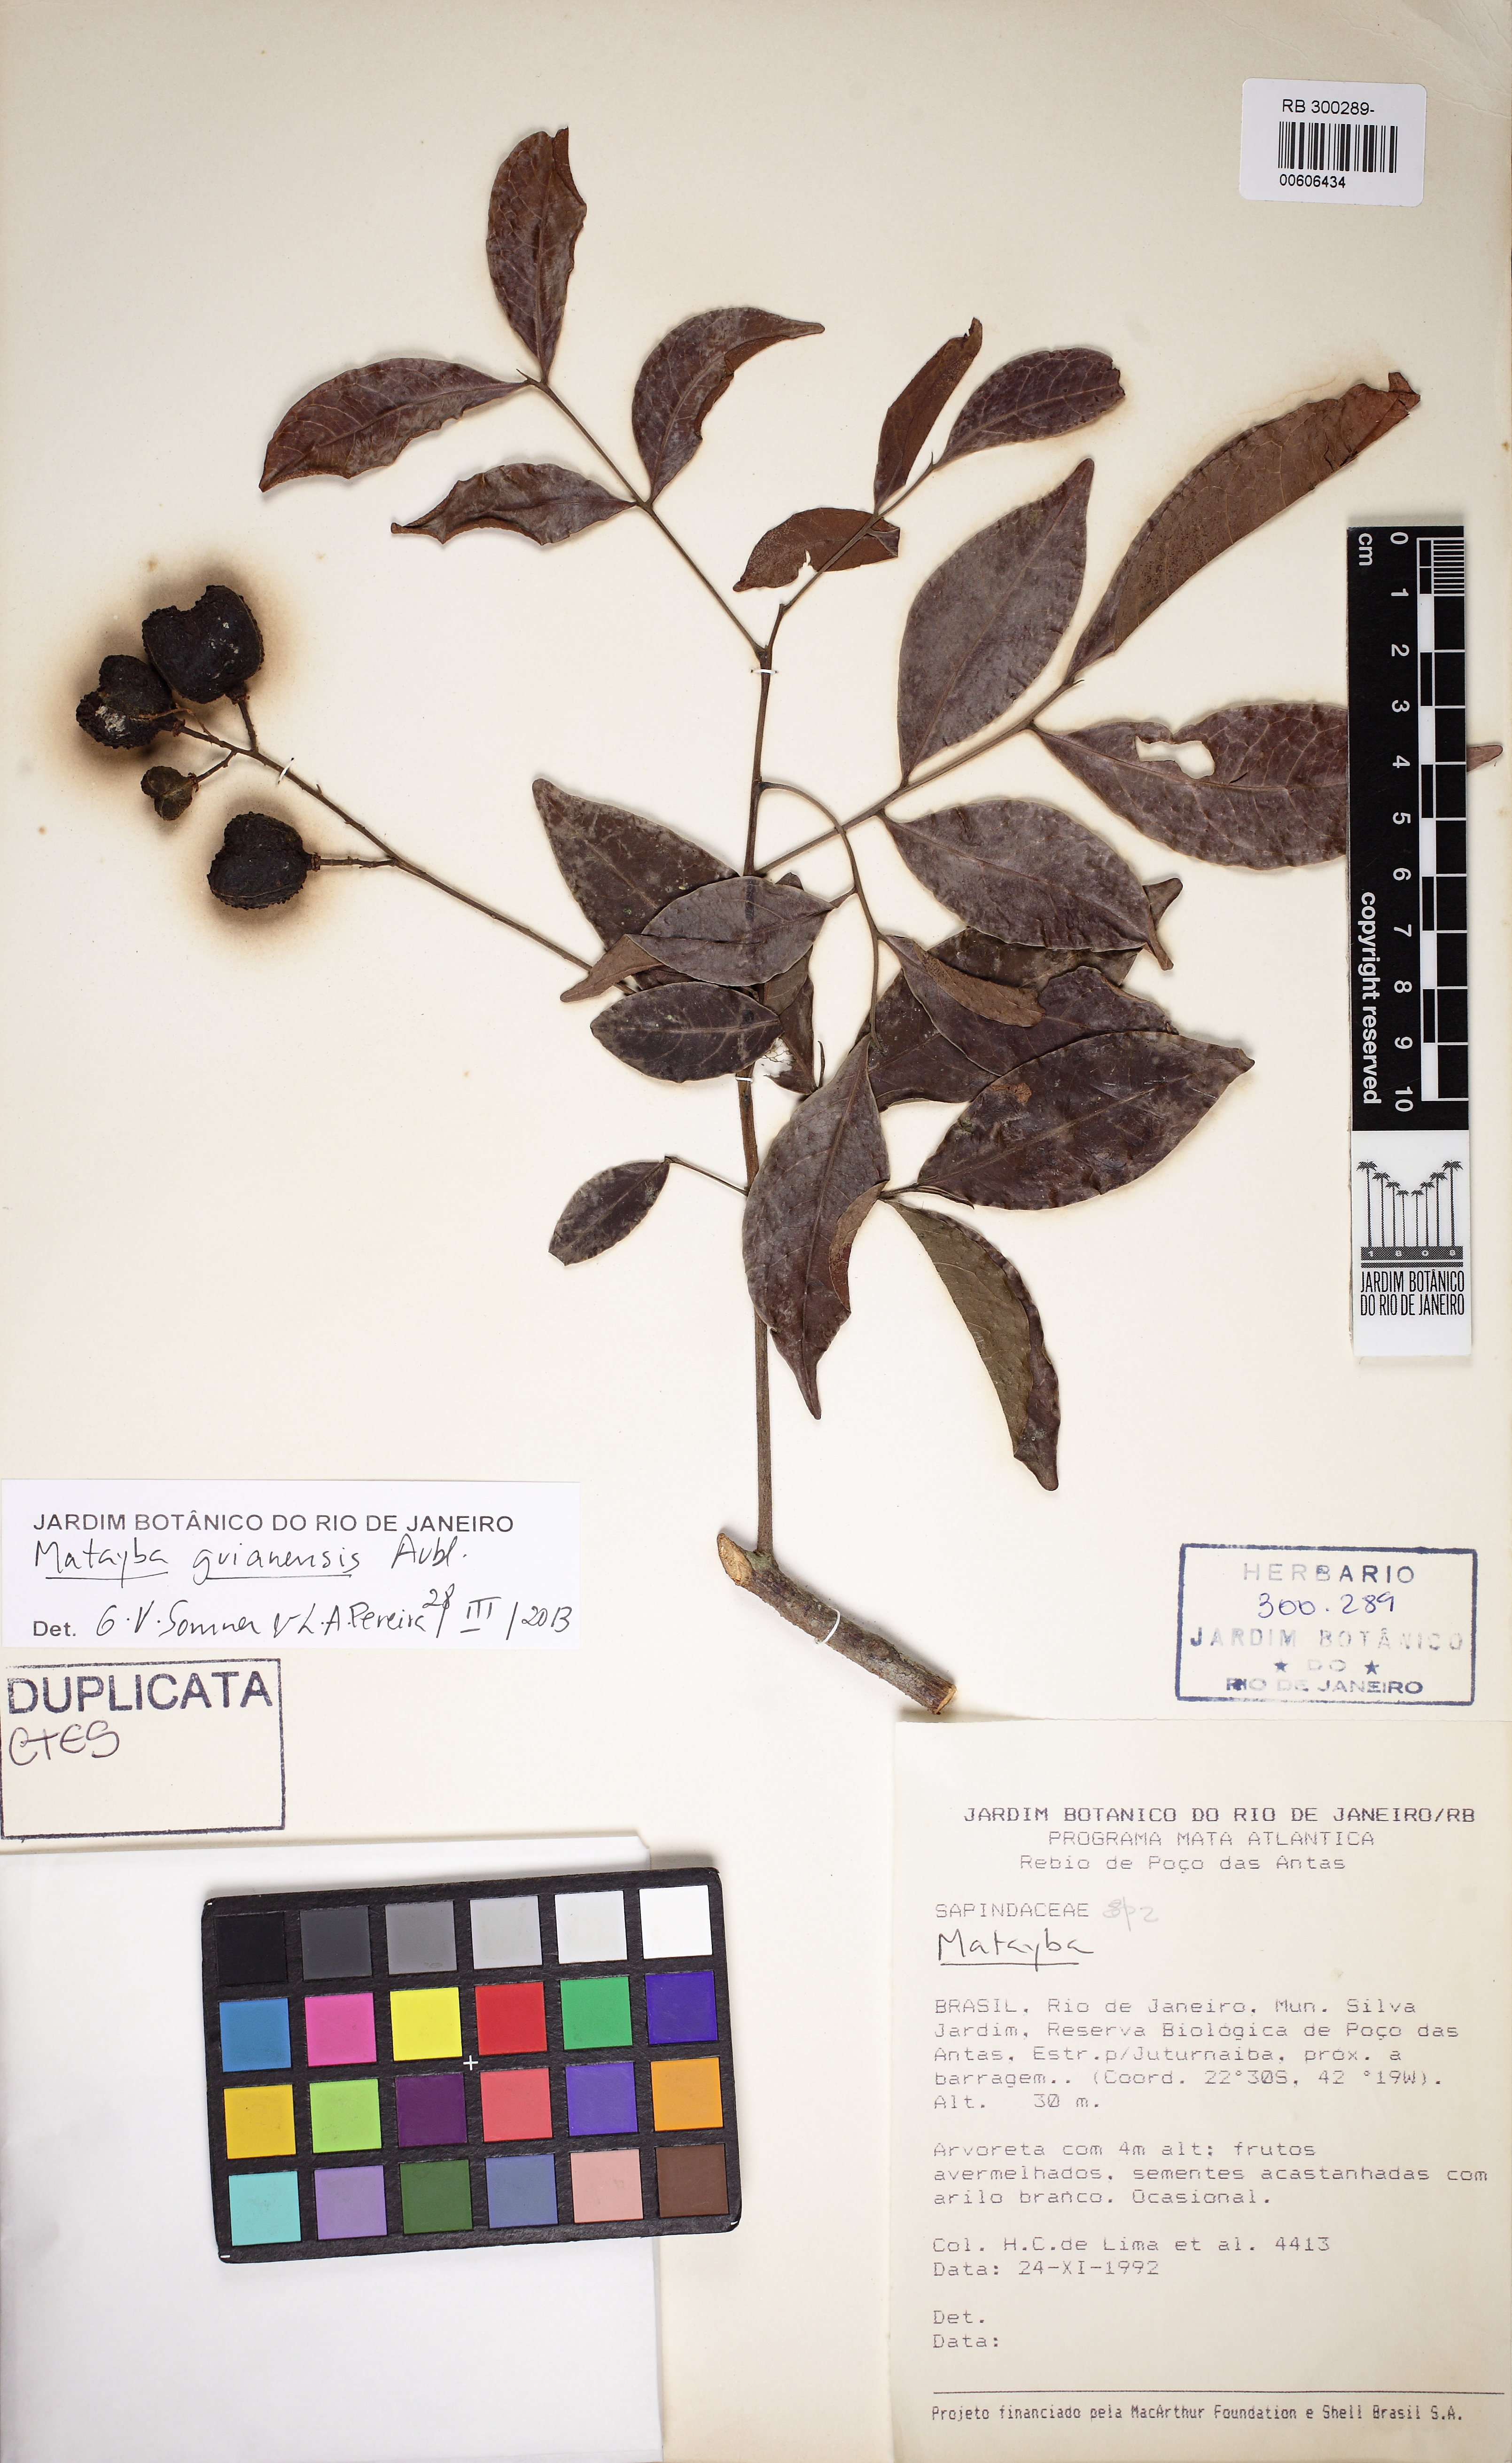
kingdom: Plantae
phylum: Tracheophyta
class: Magnoliopsida
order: Sapindales
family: Sapindaceae
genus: Matayba
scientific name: Matayba guianensis
